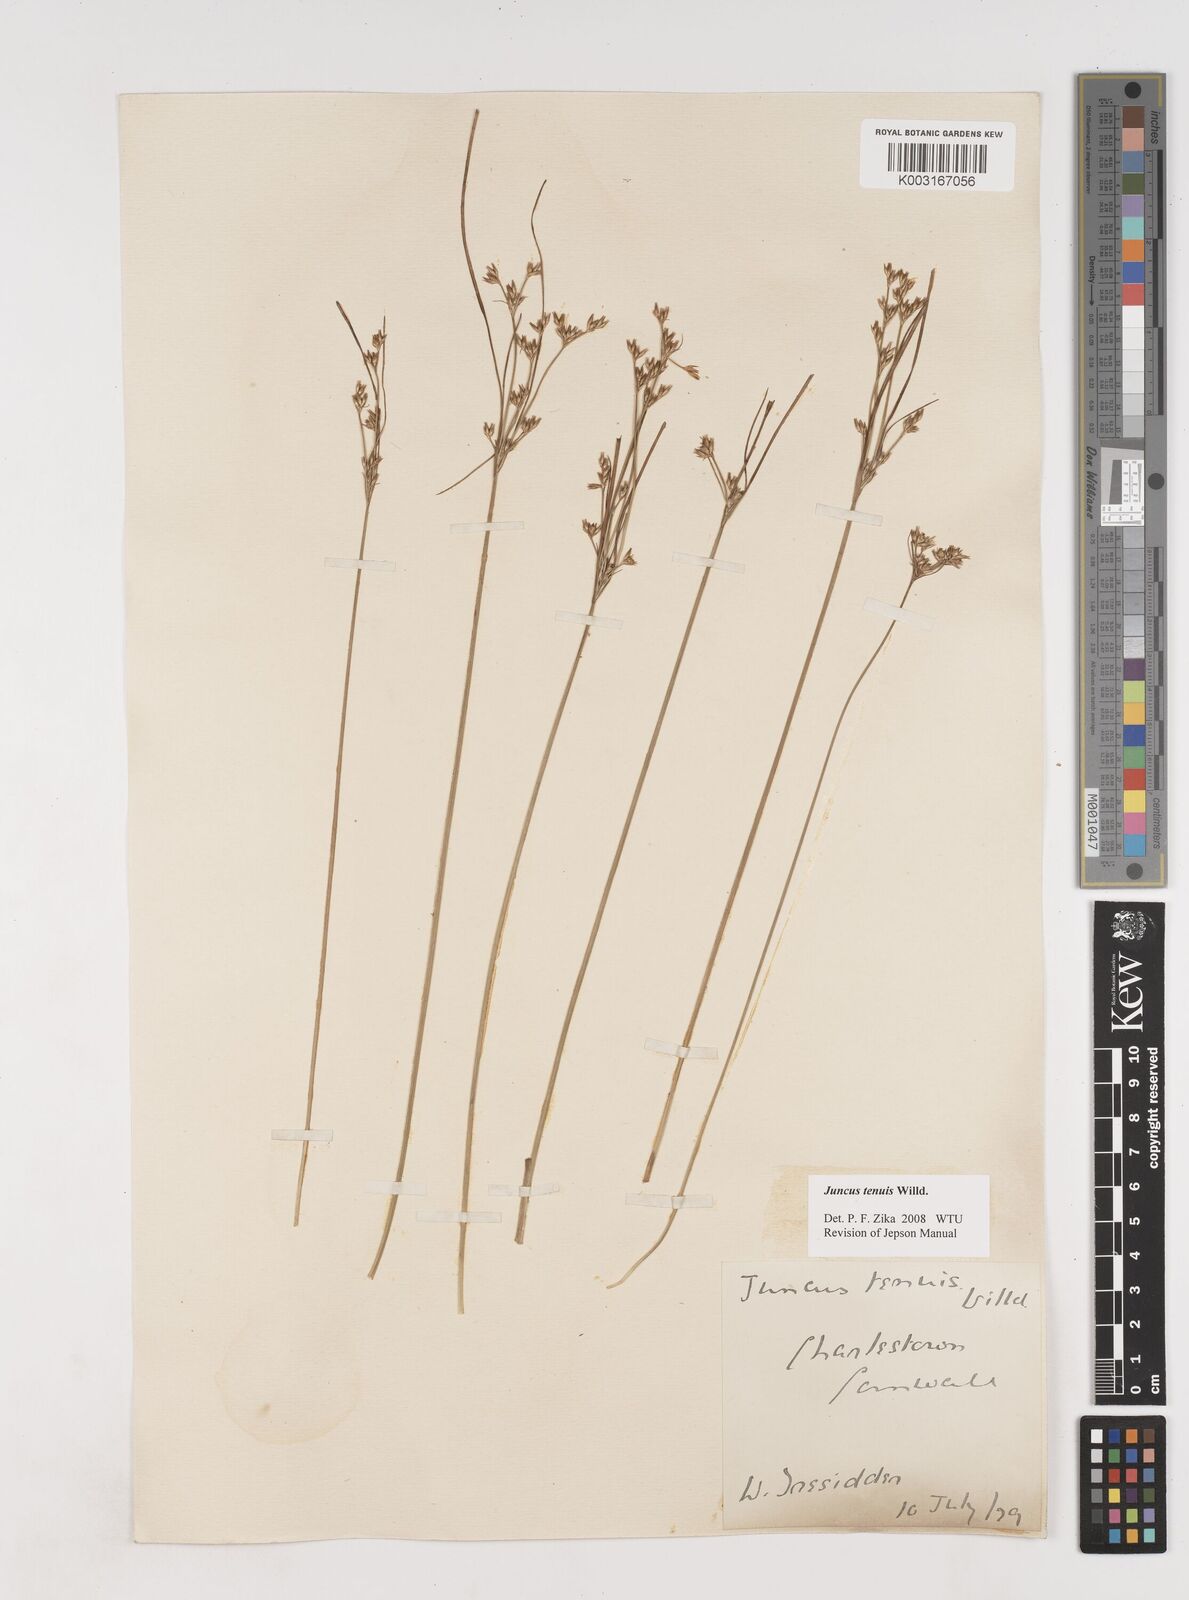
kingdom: Plantae
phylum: Tracheophyta
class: Liliopsida
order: Poales
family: Juncaceae
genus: Juncus
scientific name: Juncus tenuis
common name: Slender rush
